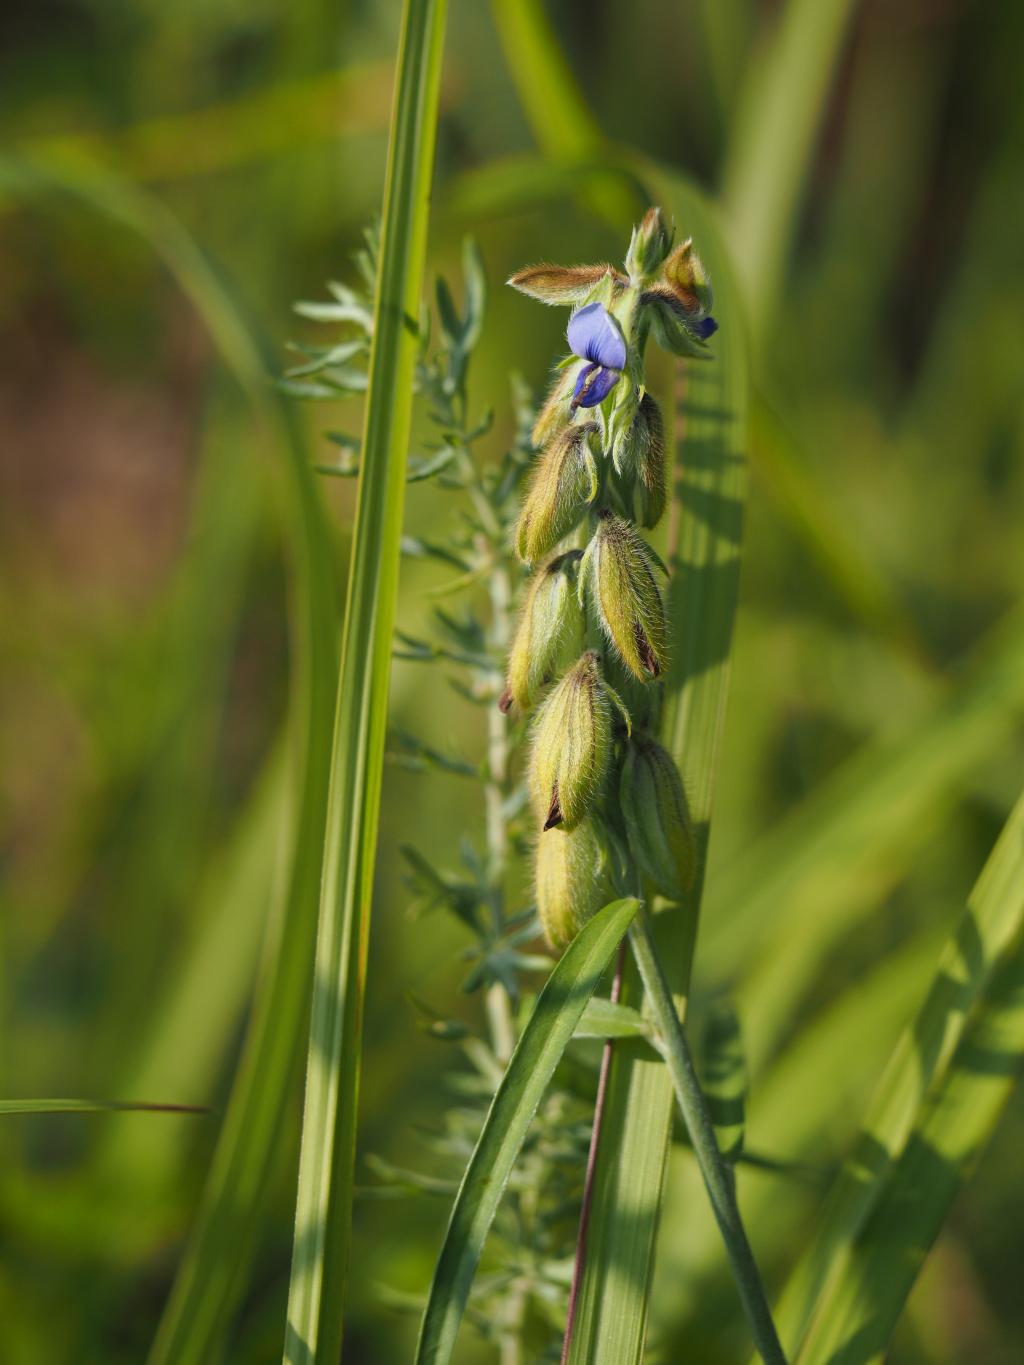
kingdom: Plantae
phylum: Tracheophyta
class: Magnoliopsida
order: Fabales
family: Fabaceae
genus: Crotalaria
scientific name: Crotalaria sessiliflora
